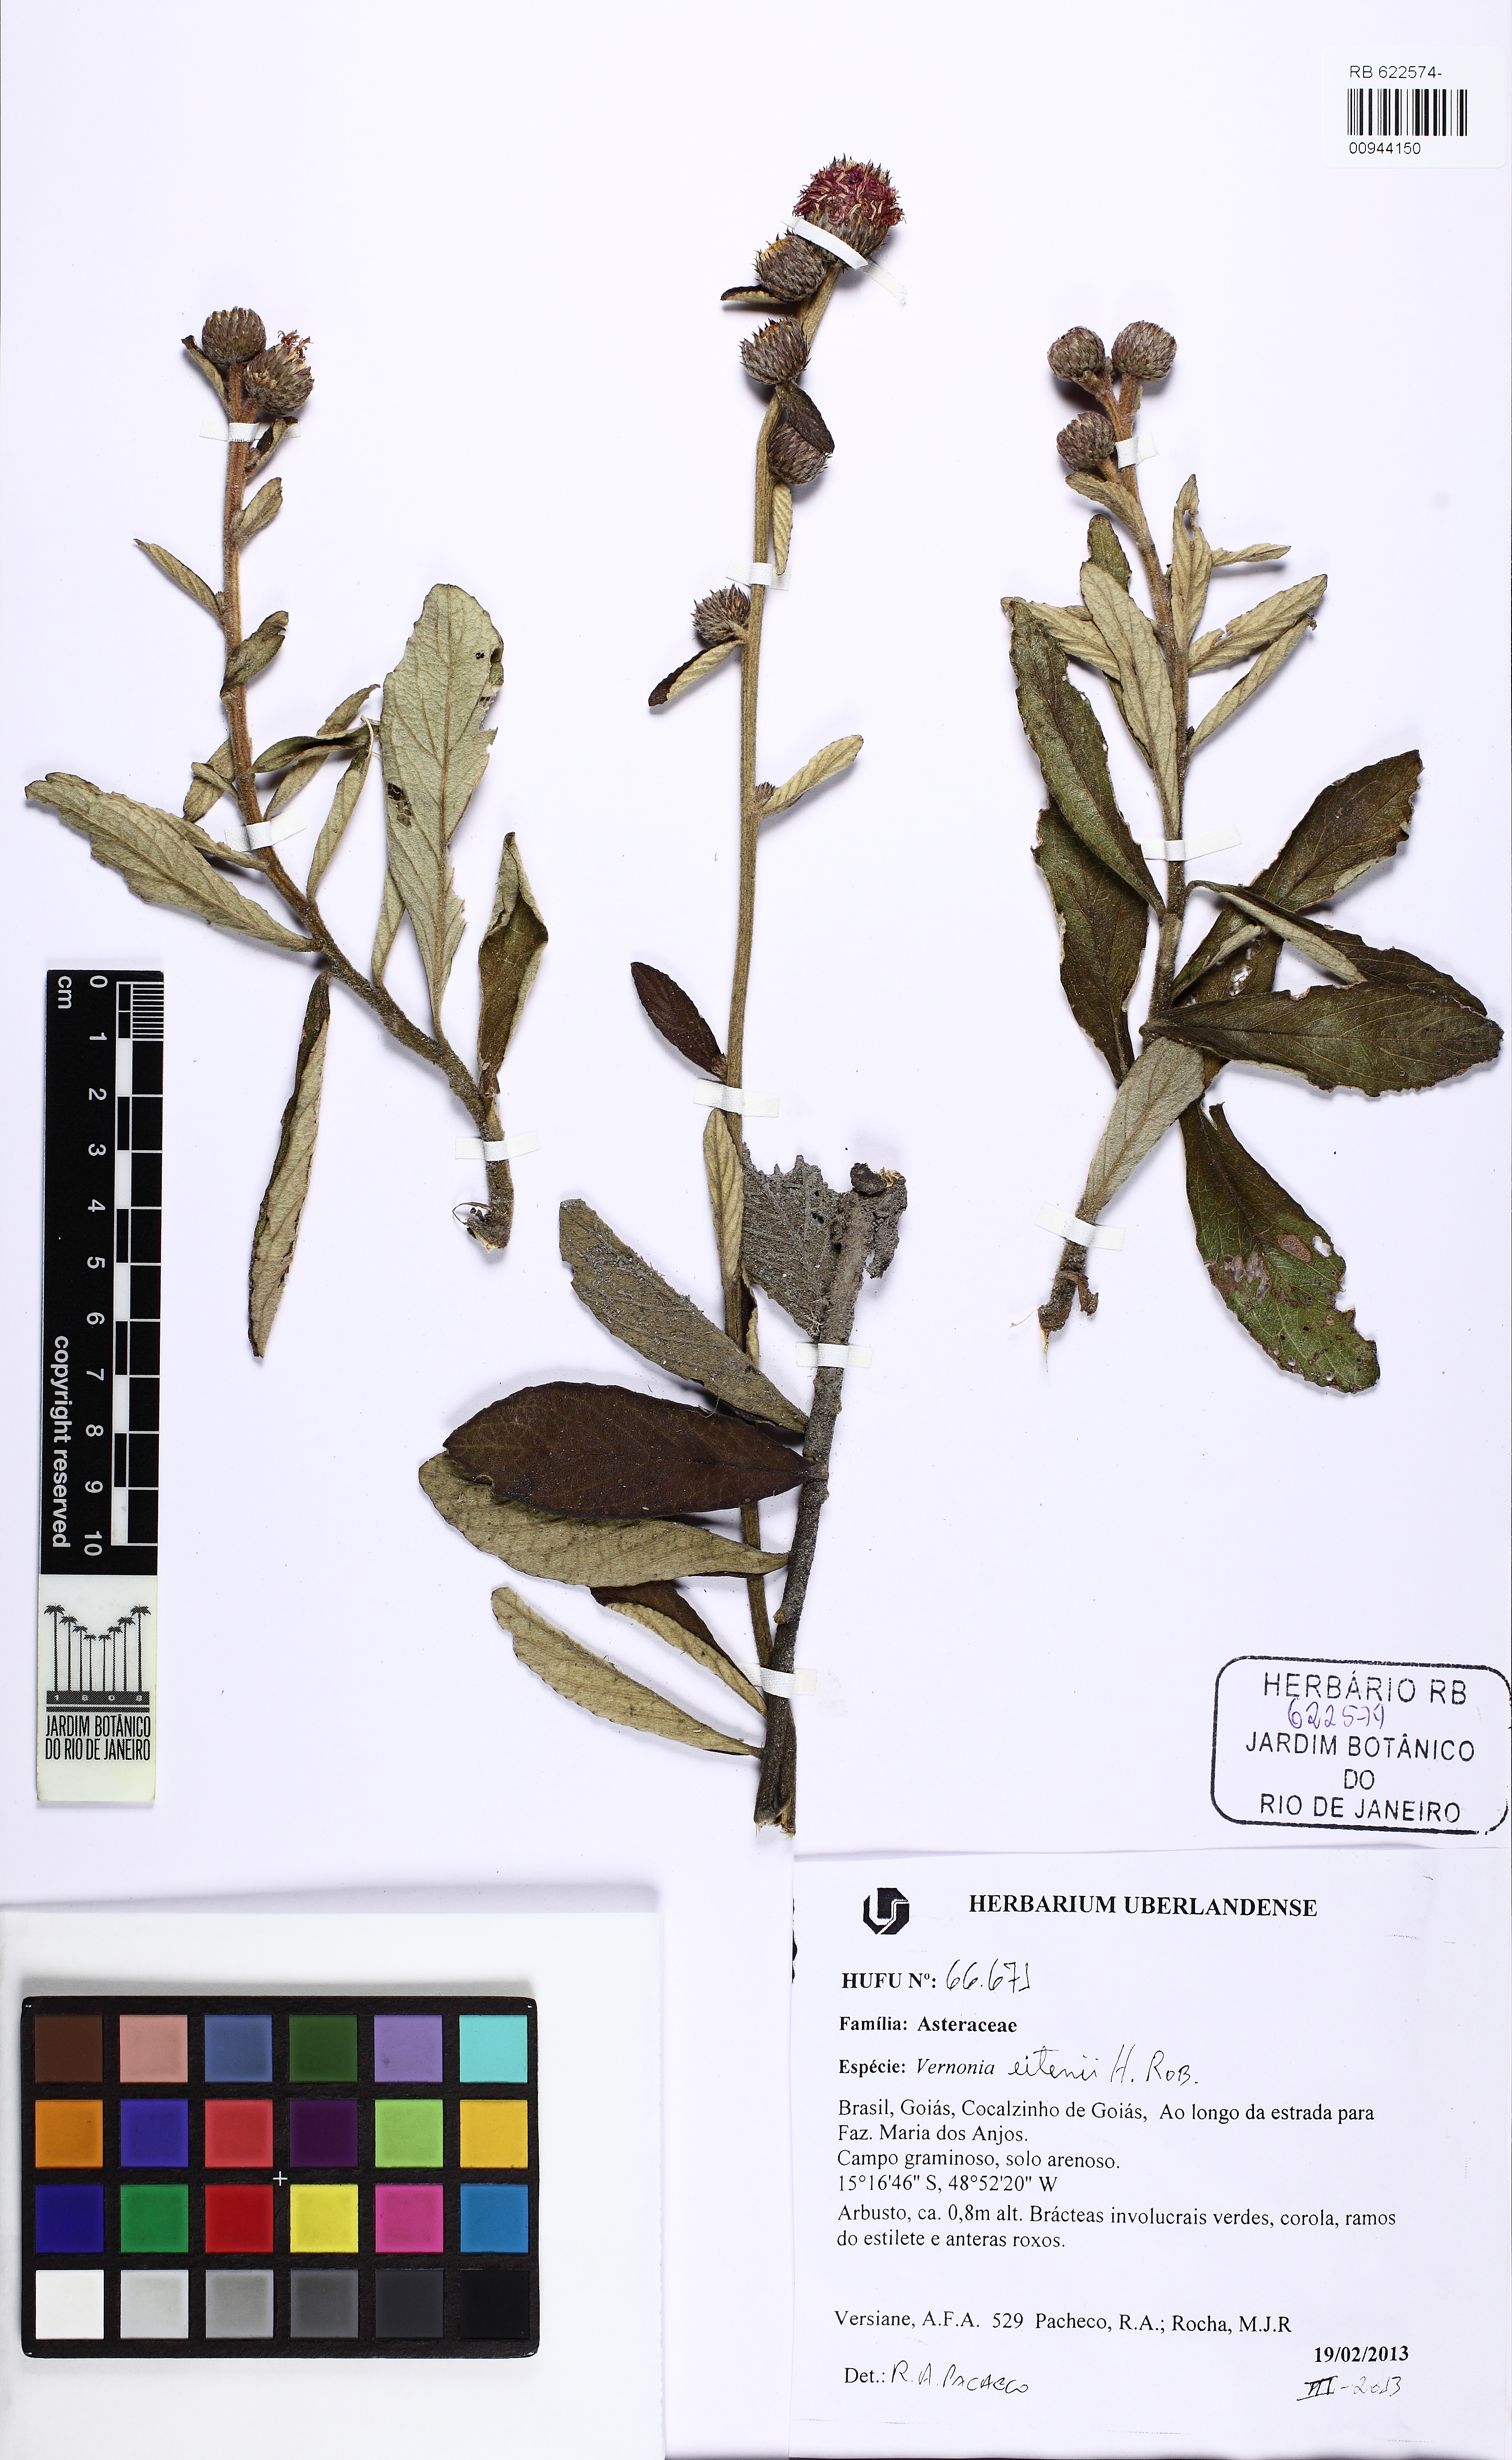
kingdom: Plantae
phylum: Tracheophyta
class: Magnoliopsida
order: Asterales
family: Asteraceae
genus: Lessingianthus
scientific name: Lessingianthus eitenii
